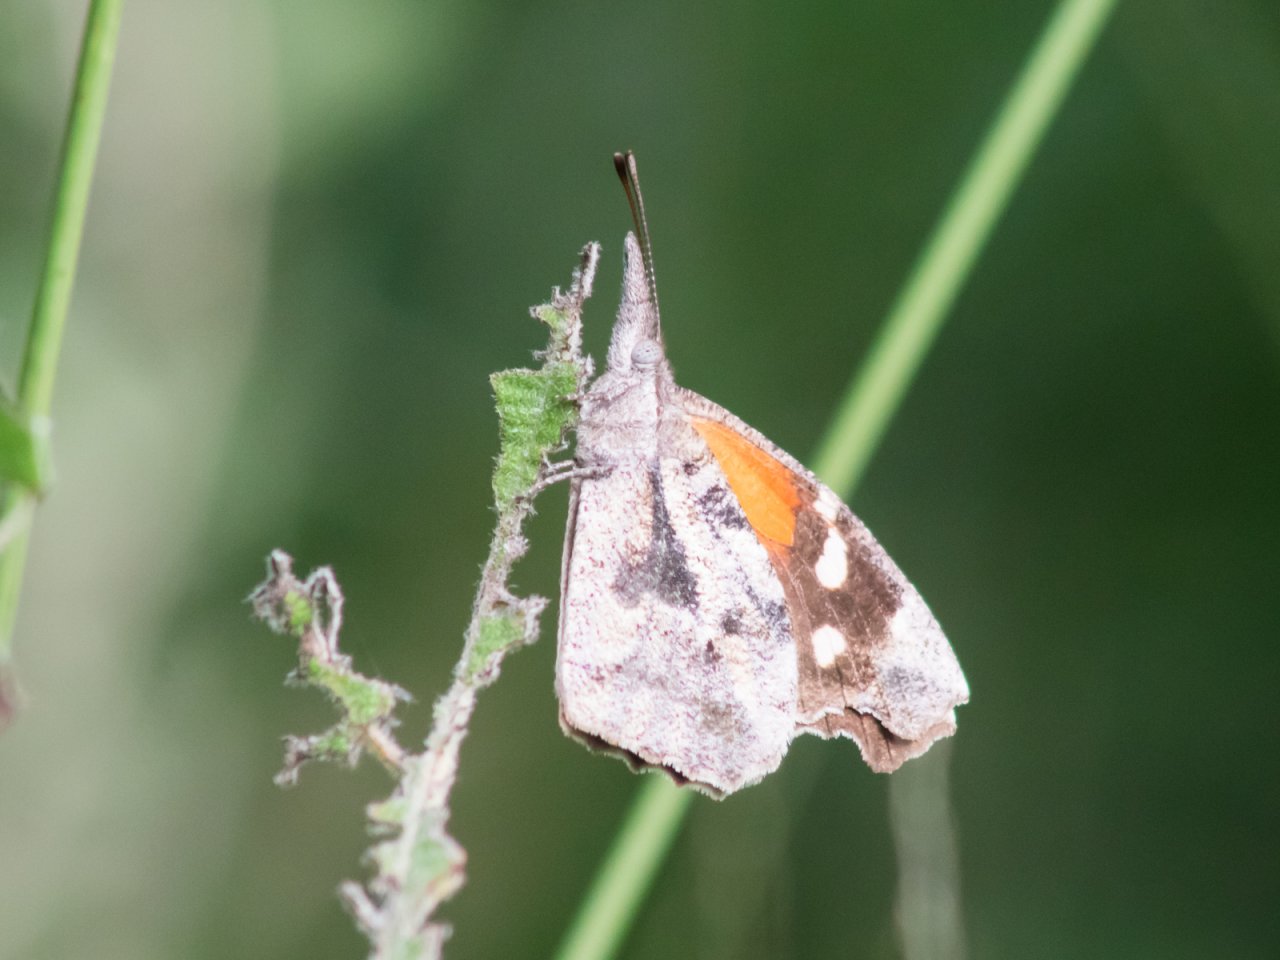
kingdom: Animalia
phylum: Arthropoda
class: Insecta
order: Lepidoptera
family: Nymphalidae
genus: Libytheana
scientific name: Libytheana carinenta
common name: American Snout
